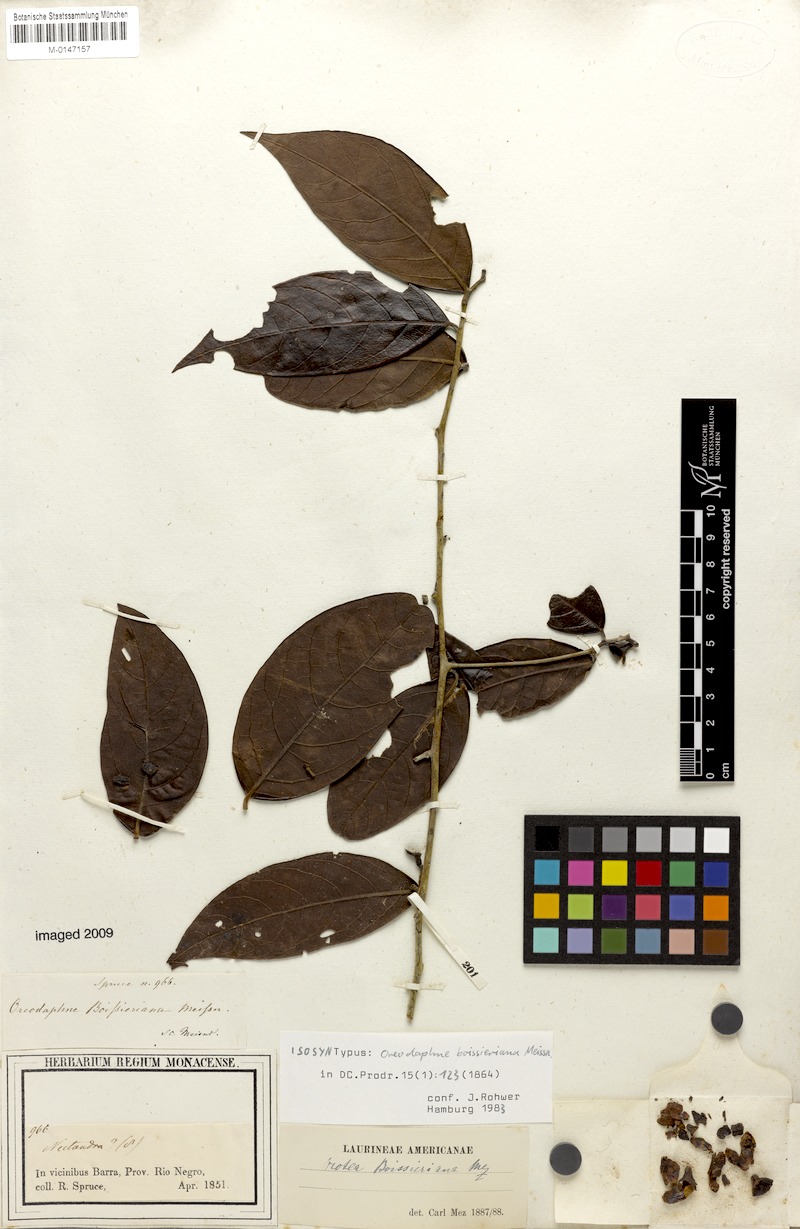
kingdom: Plantae
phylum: Tracheophyta
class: Magnoliopsida
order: Laurales
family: Lauraceae
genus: Ocotea
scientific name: Ocotea boissieriana
